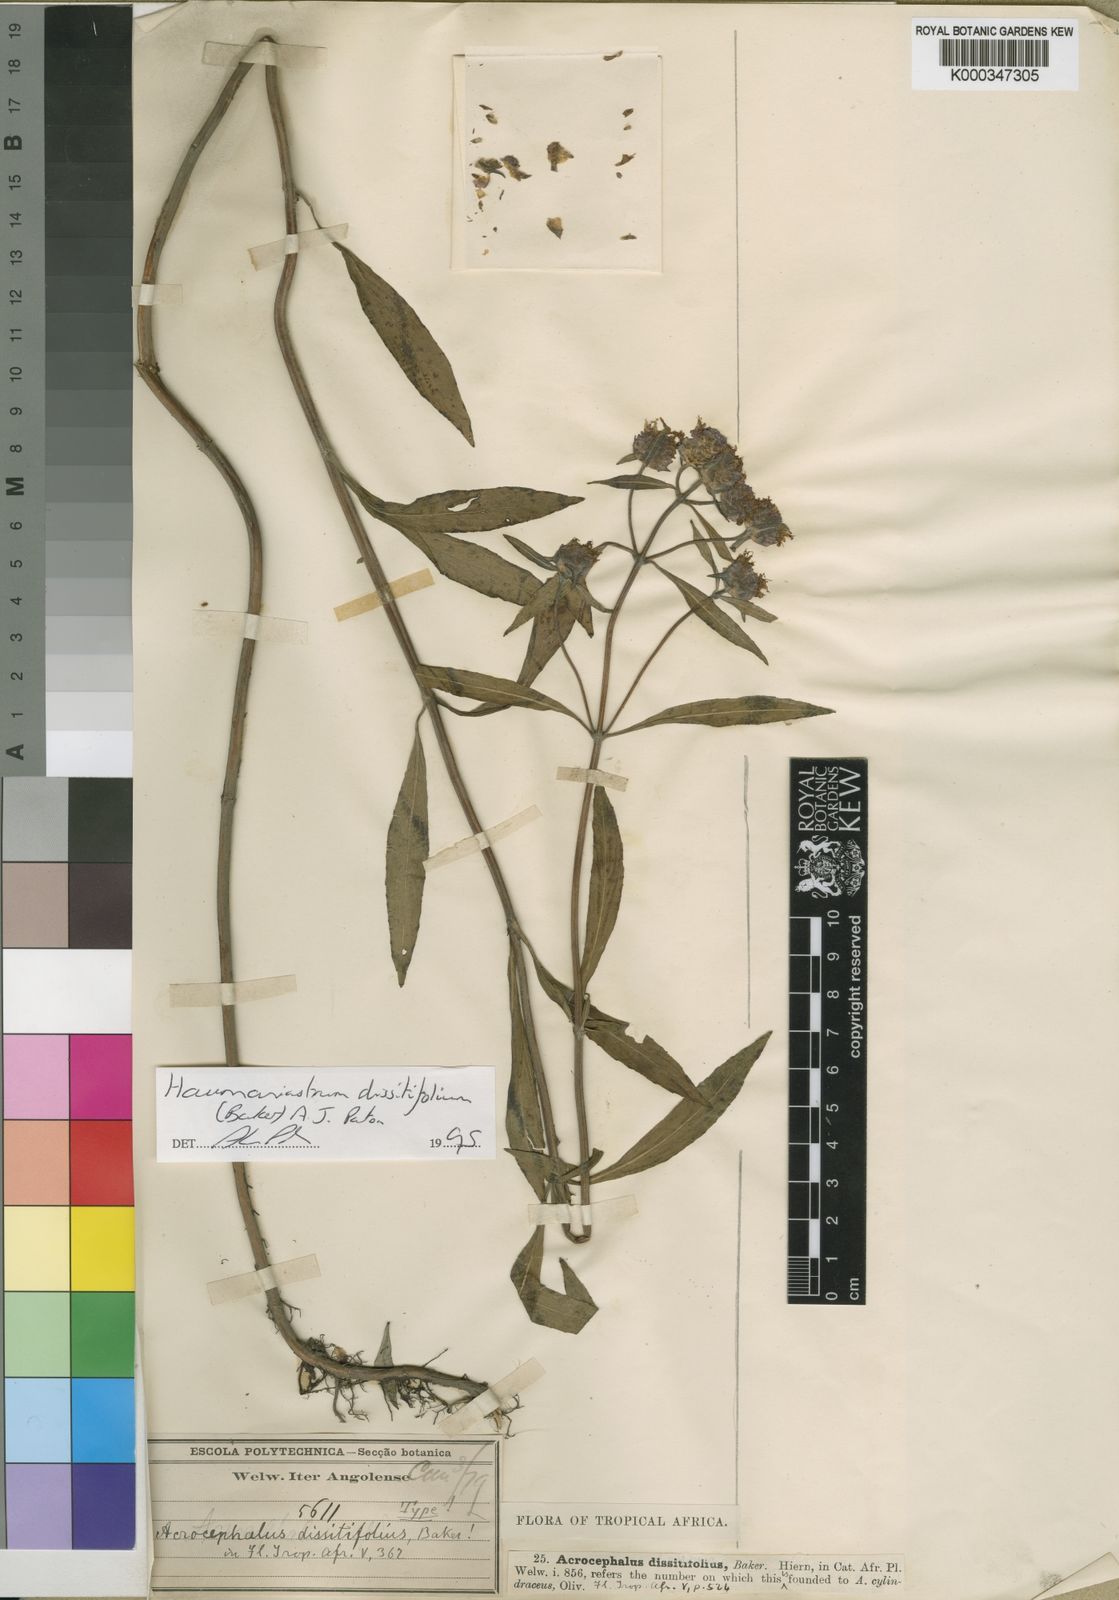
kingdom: Plantae
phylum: Tracheophyta
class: Magnoliopsida
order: Lamiales
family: Lamiaceae
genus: Haumaniastrum
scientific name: Haumaniastrum dissitifolium
